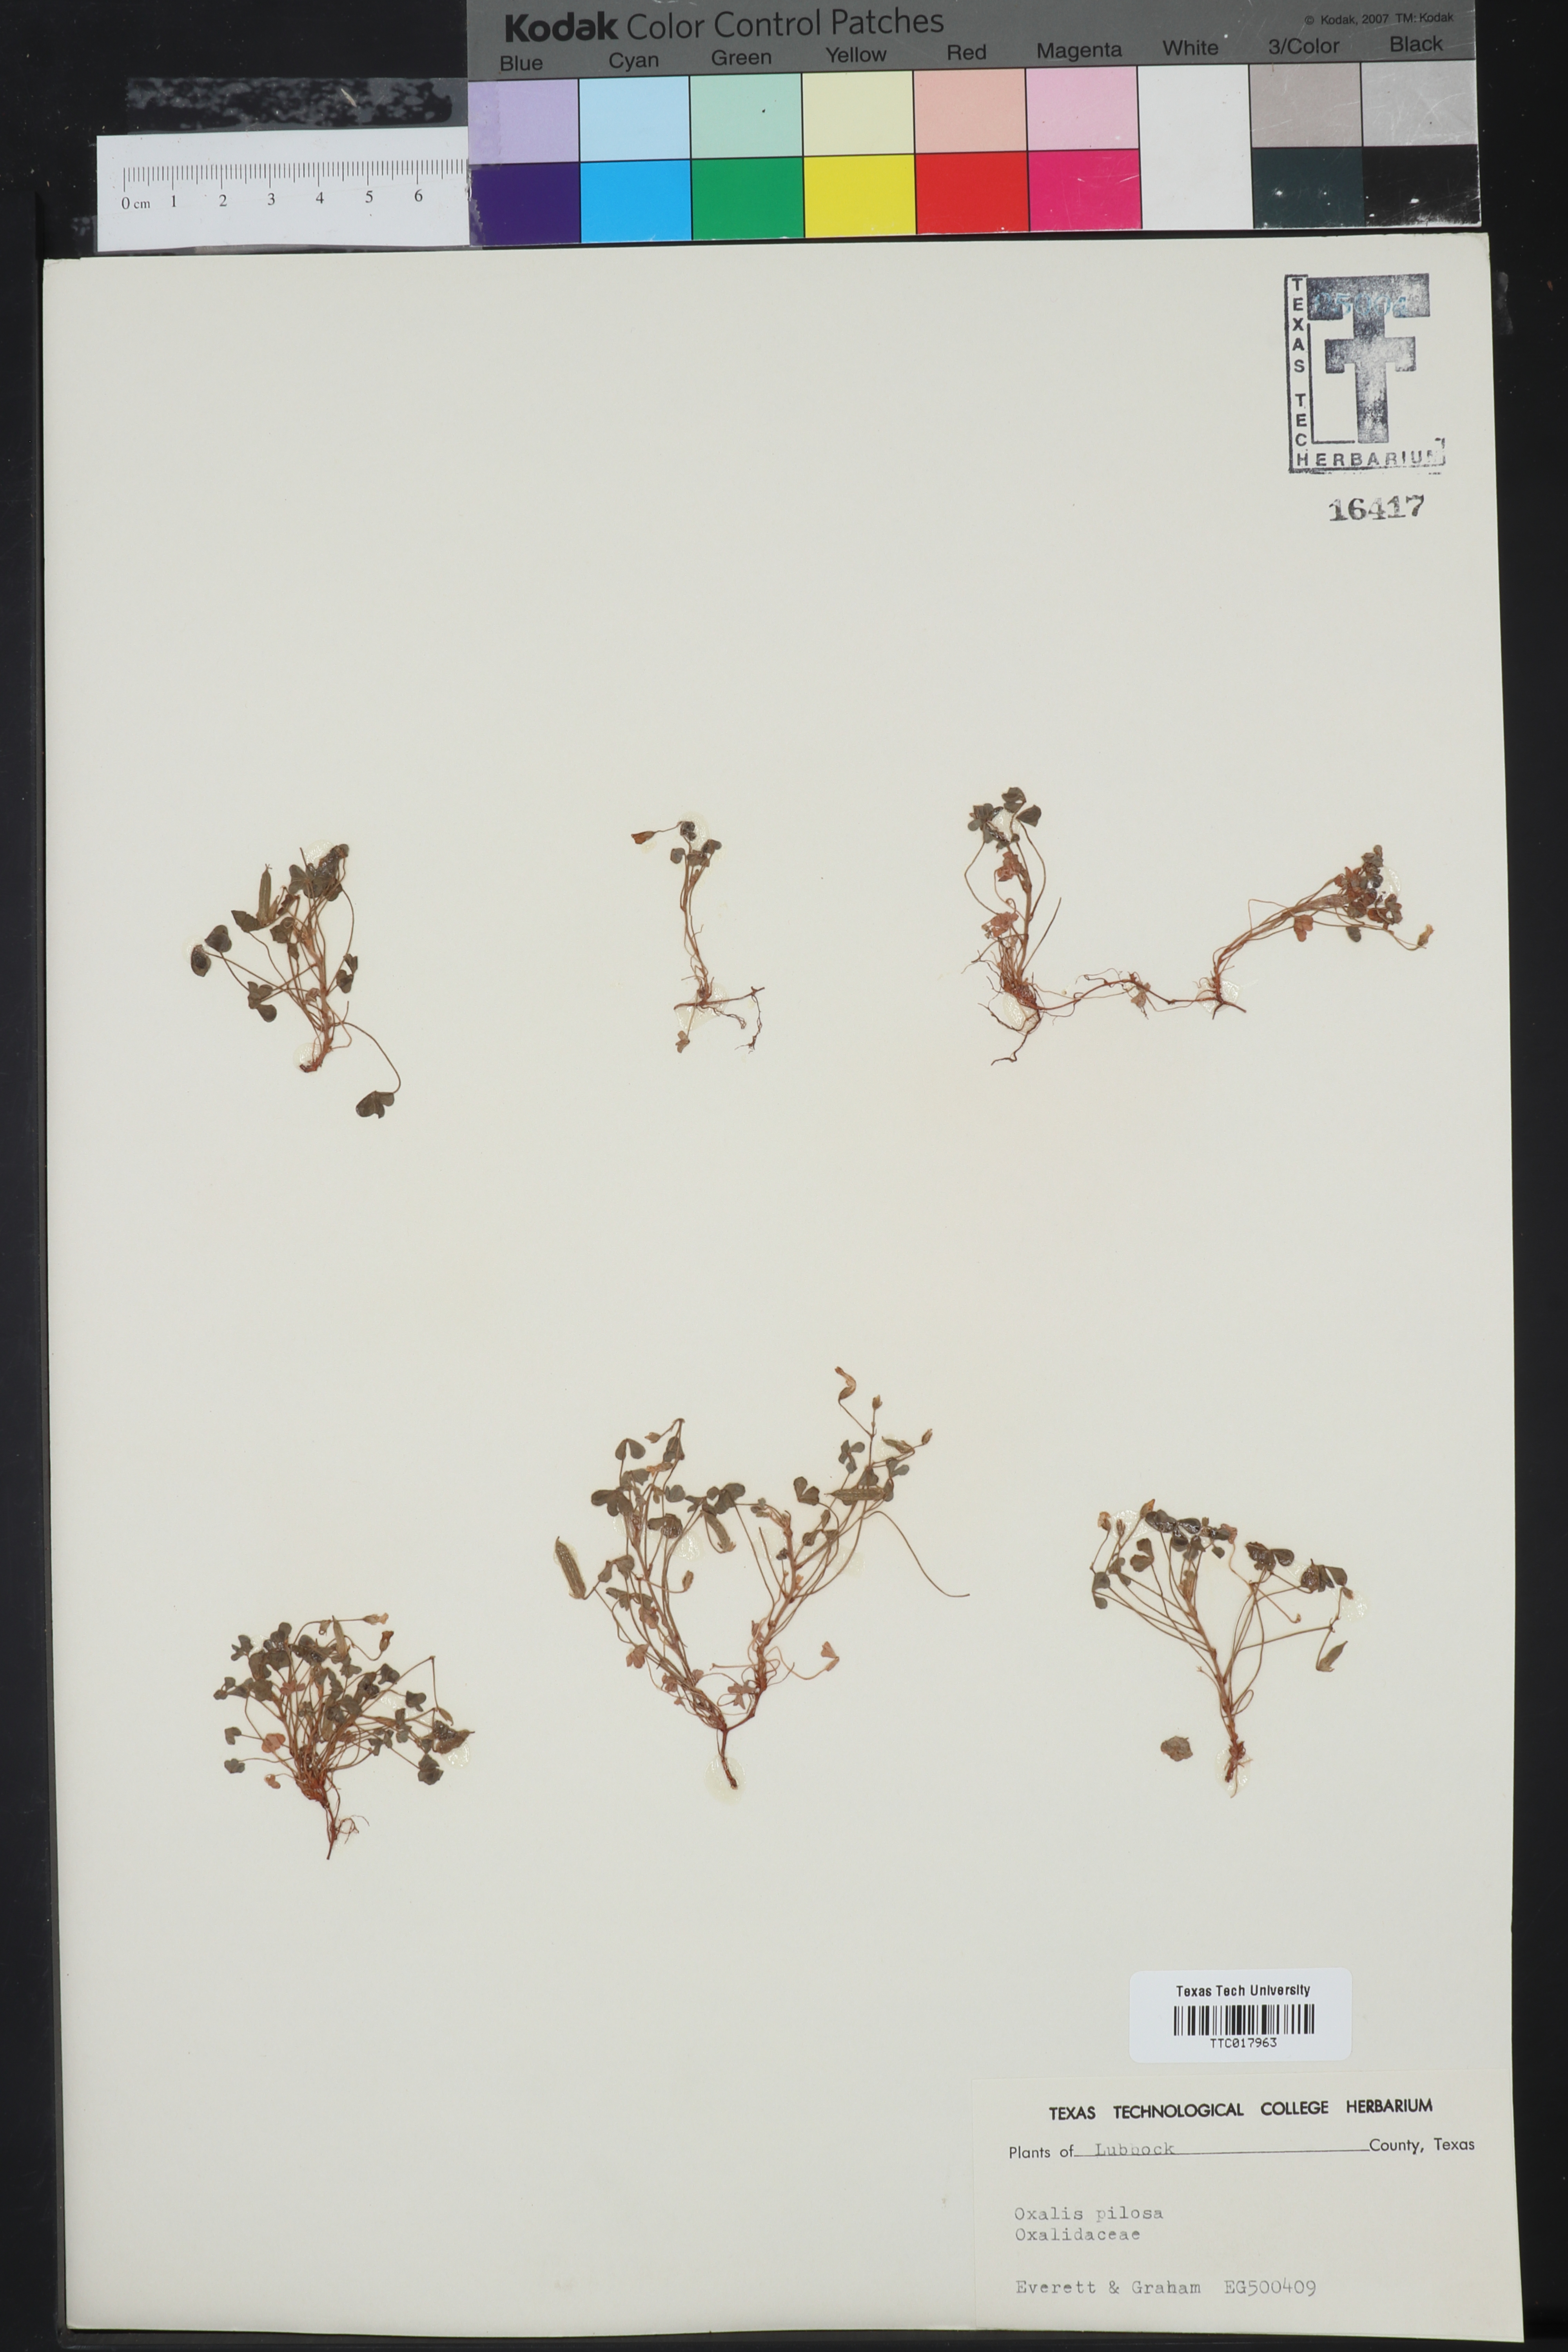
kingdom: Plantae
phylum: Tracheophyta
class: Magnoliopsida
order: Oxalidales
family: Oxalidaceae
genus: Oxalis
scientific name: Oxalis pilosa
